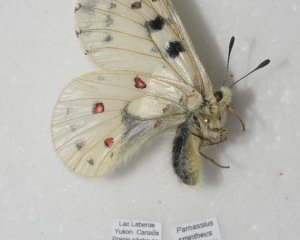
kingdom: Animalia
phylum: Arthropoda
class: Insecta
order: Lepidoptera
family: Papilionidae
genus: Parnassius
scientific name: Parnassius smintheus
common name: Rocky Mountain Parnassian
